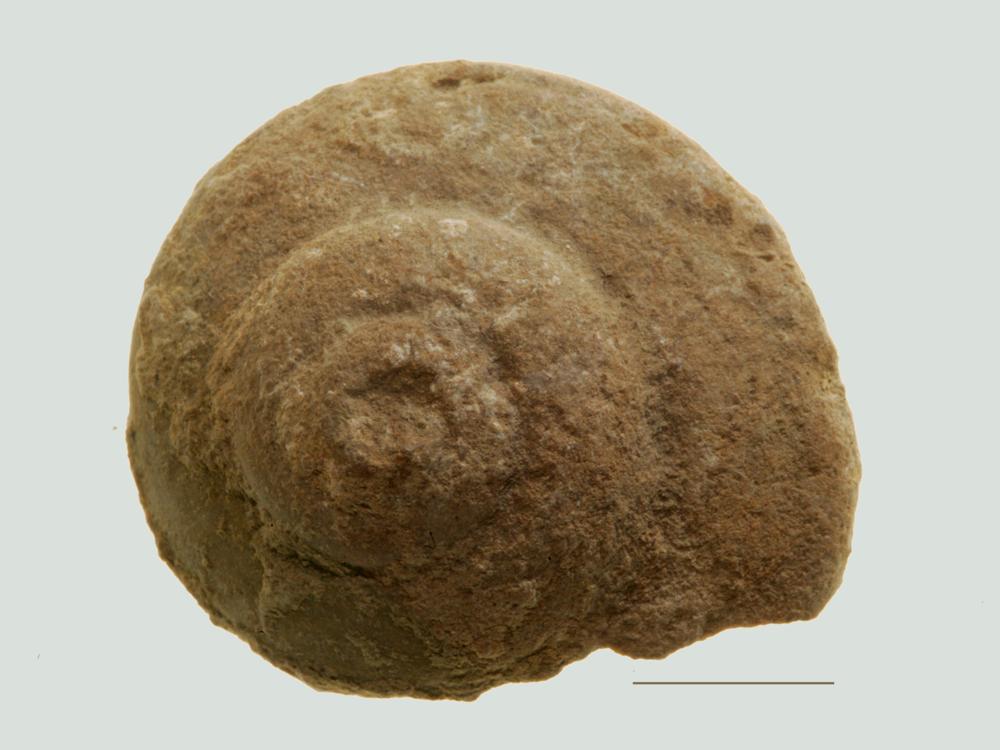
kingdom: Animalia
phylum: Mollusca
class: Gastropoda
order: Pleurotomariida
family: Eotomariidae
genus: Eotomaria
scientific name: Eotomaria Pleurotomaria notabilis
